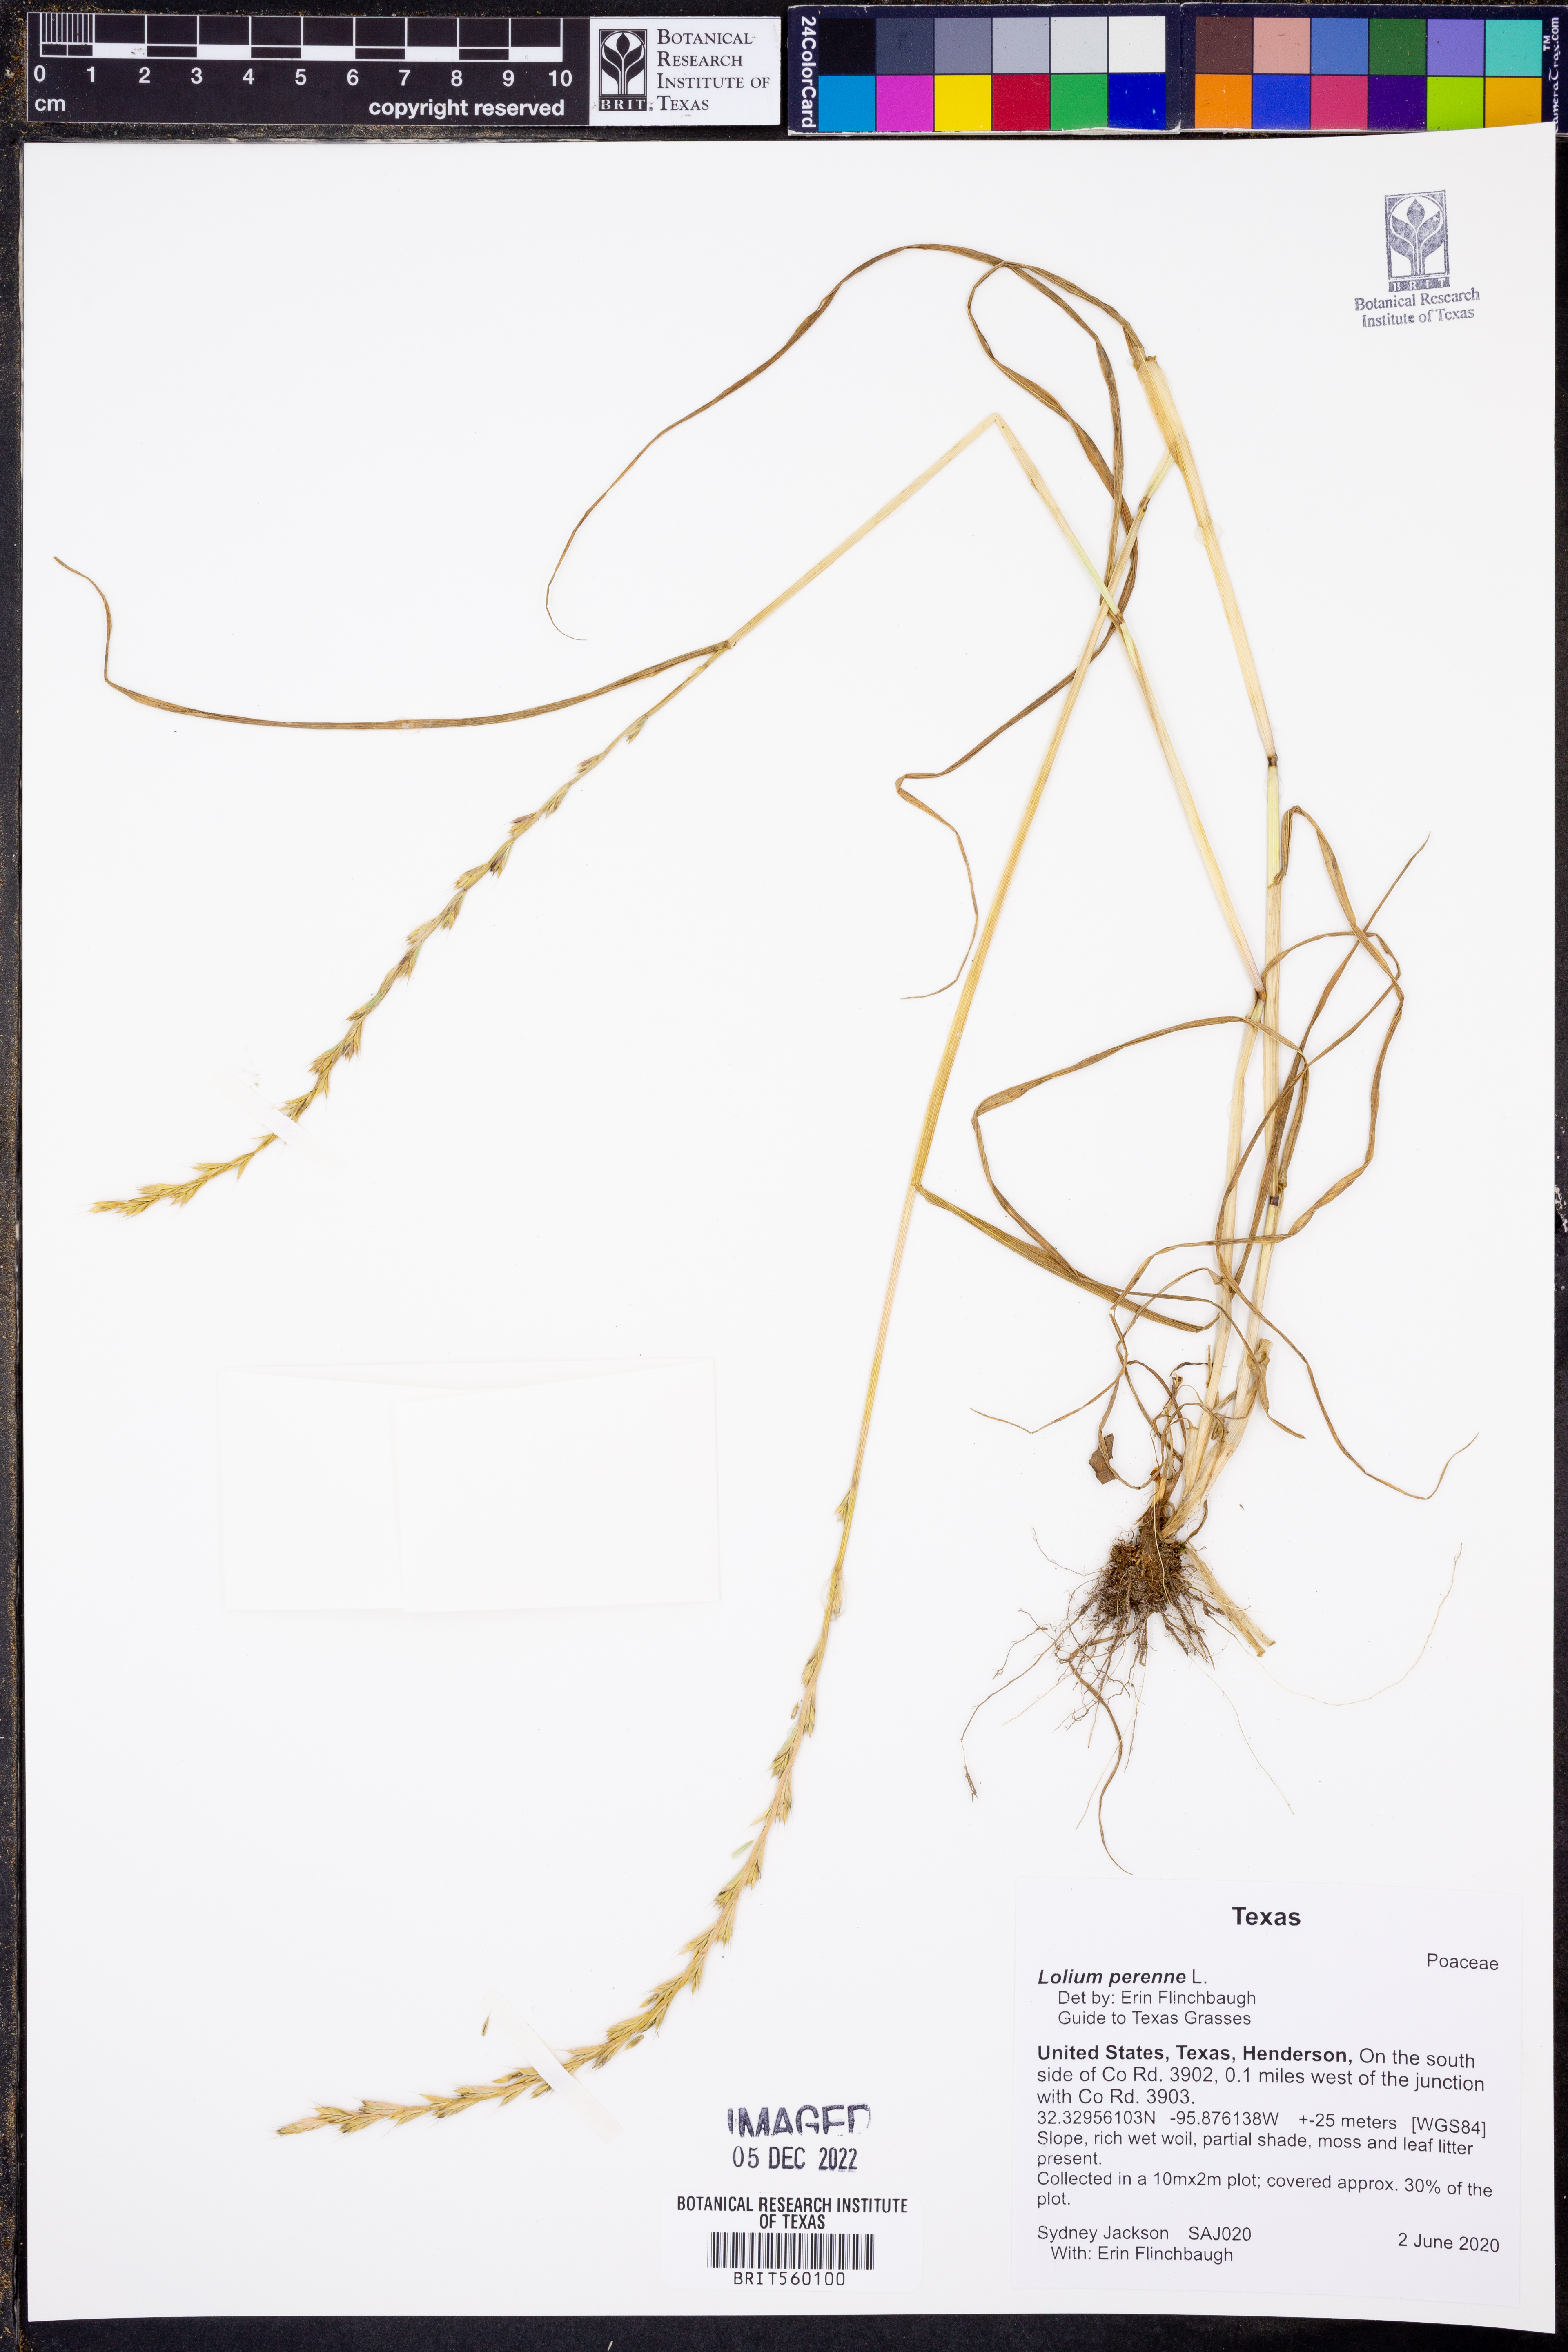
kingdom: Plantae
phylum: Tracheophyta
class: Liliopsida
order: Poales
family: Poaceae
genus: Lolium
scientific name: Lolium perenne
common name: Perennial ryegrass
